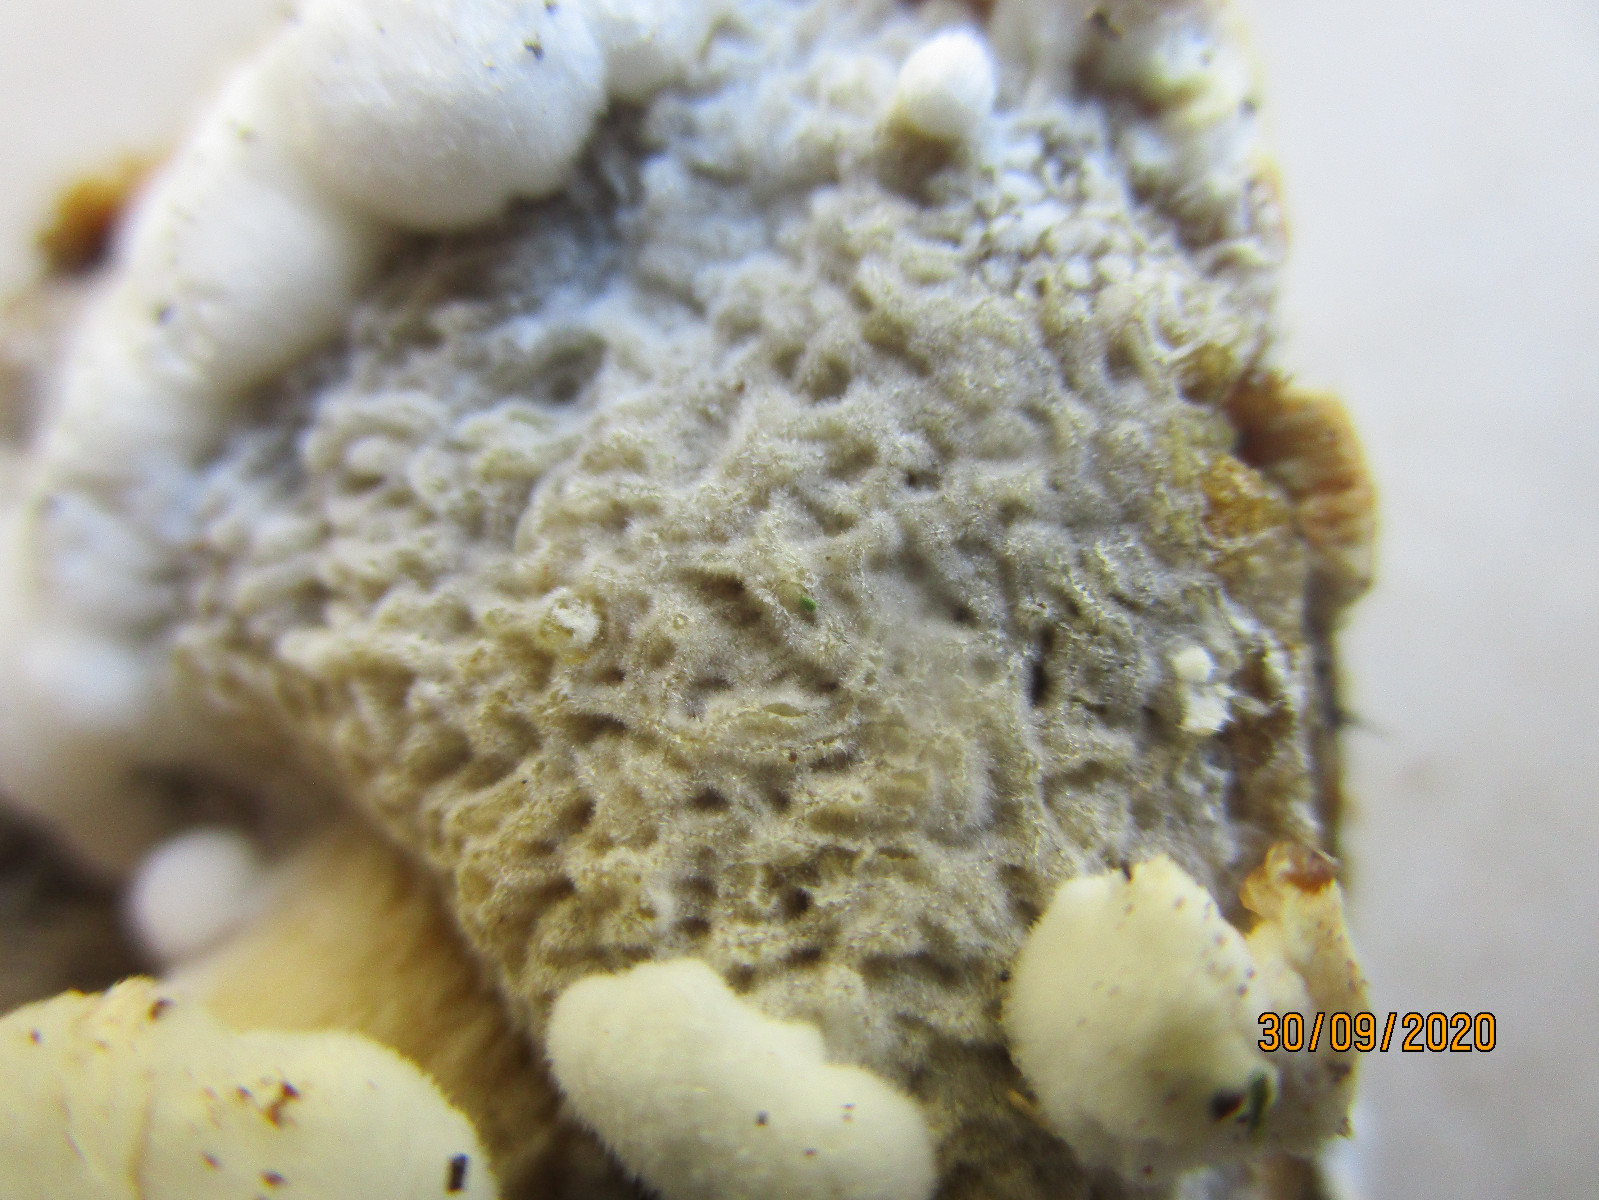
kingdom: Fungi
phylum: Ascomycota
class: Sordariomycetes
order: Hypocreales
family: Hypocreaceae
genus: Hypomyces
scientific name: Hypomyces
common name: snylteskorpe
